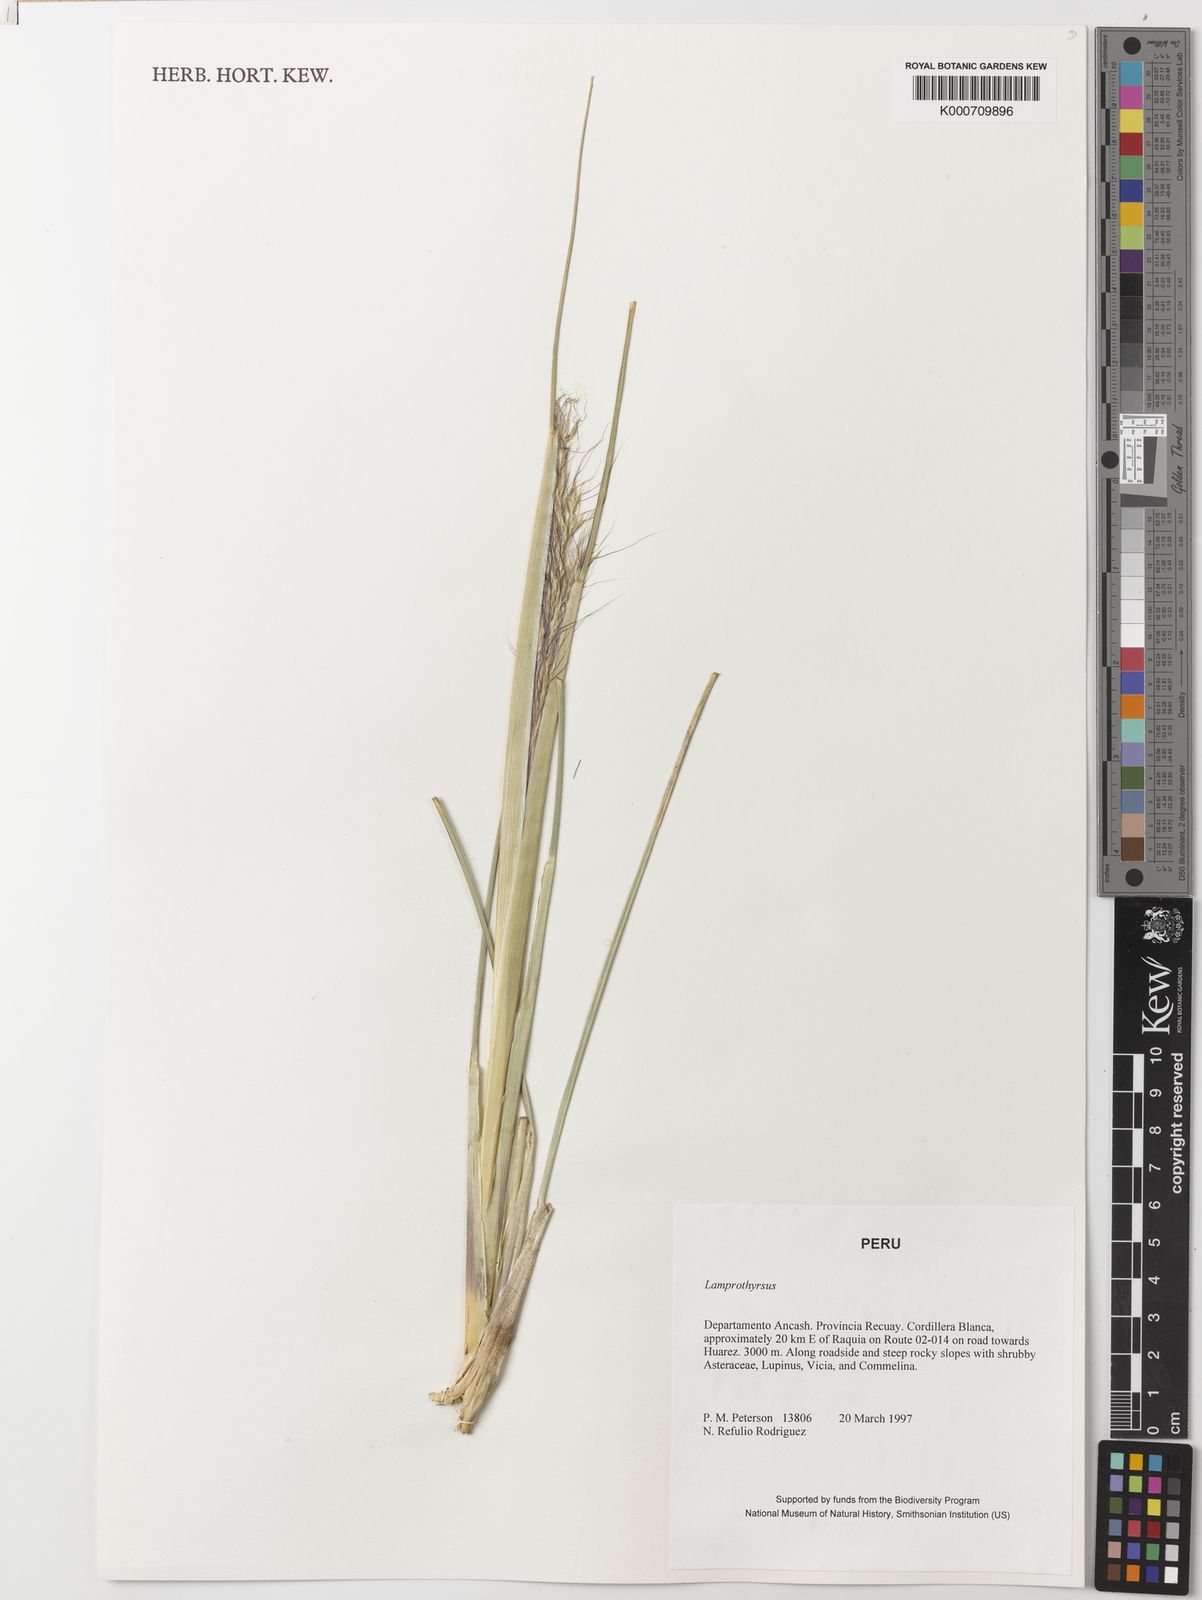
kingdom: Plantae
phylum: Tracheophyta
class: Liliopsida
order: Poales
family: Poaceae
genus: Cortaderia
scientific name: Cortaderia hieronymi
